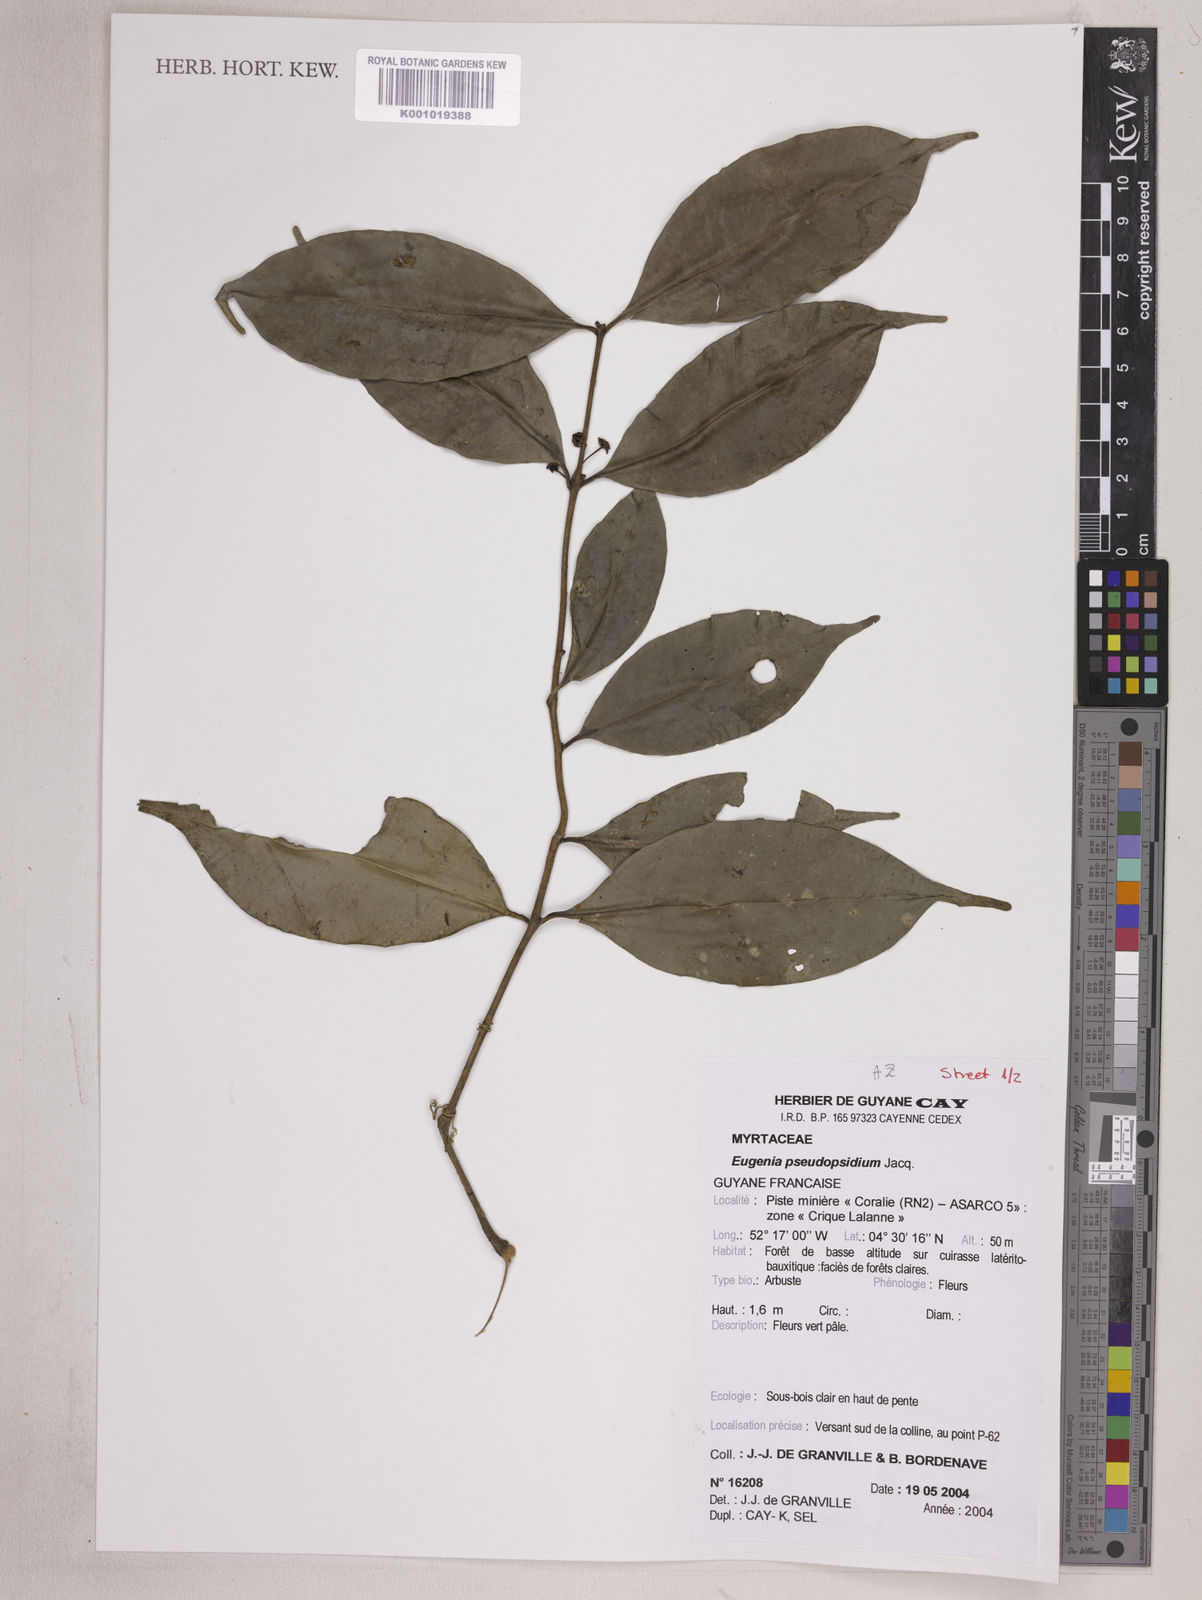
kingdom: Plantae
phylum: Tracheophyta
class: Magnoliopsida
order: Myrtales
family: Myrtaceae
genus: Eugenia
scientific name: Eugenia pseudopsidium
